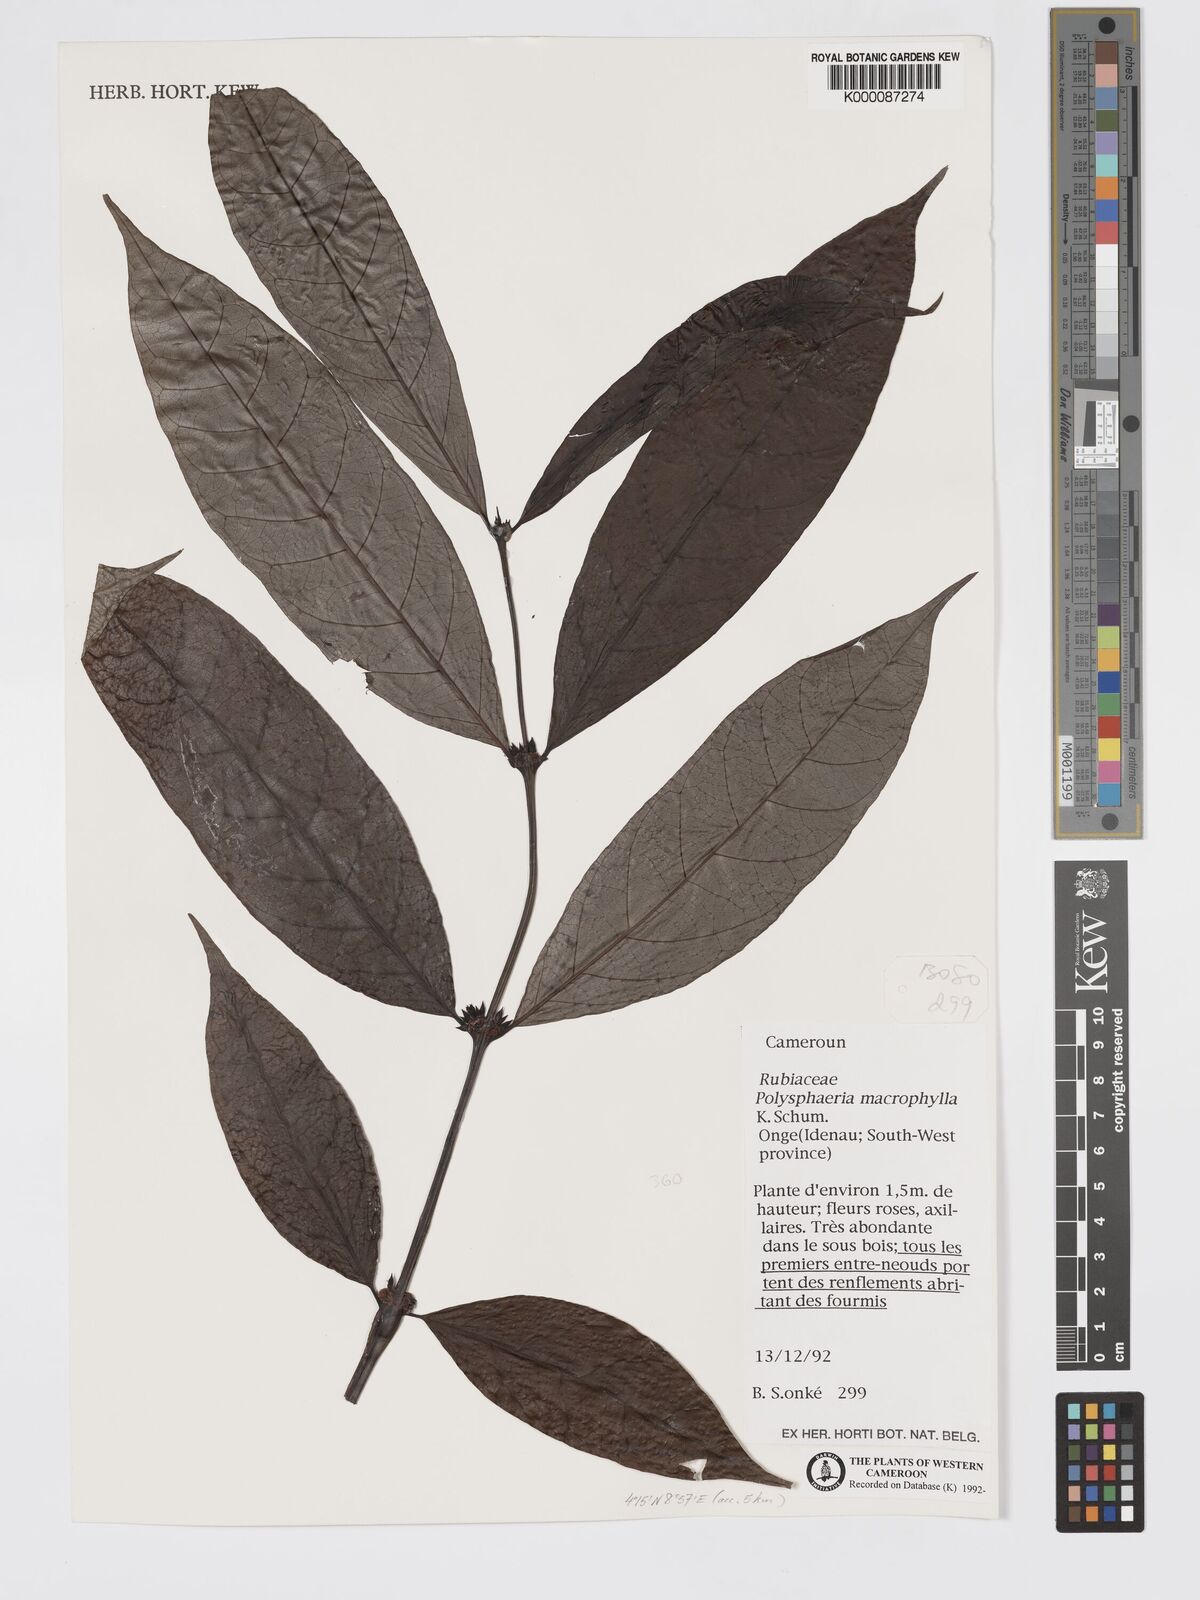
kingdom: Plantae
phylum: Tracheophyta
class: Magnoliopsida
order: Gentianales
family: Rubiaceae
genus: Polysphaeria
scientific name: Polysphaeria macrophylla
